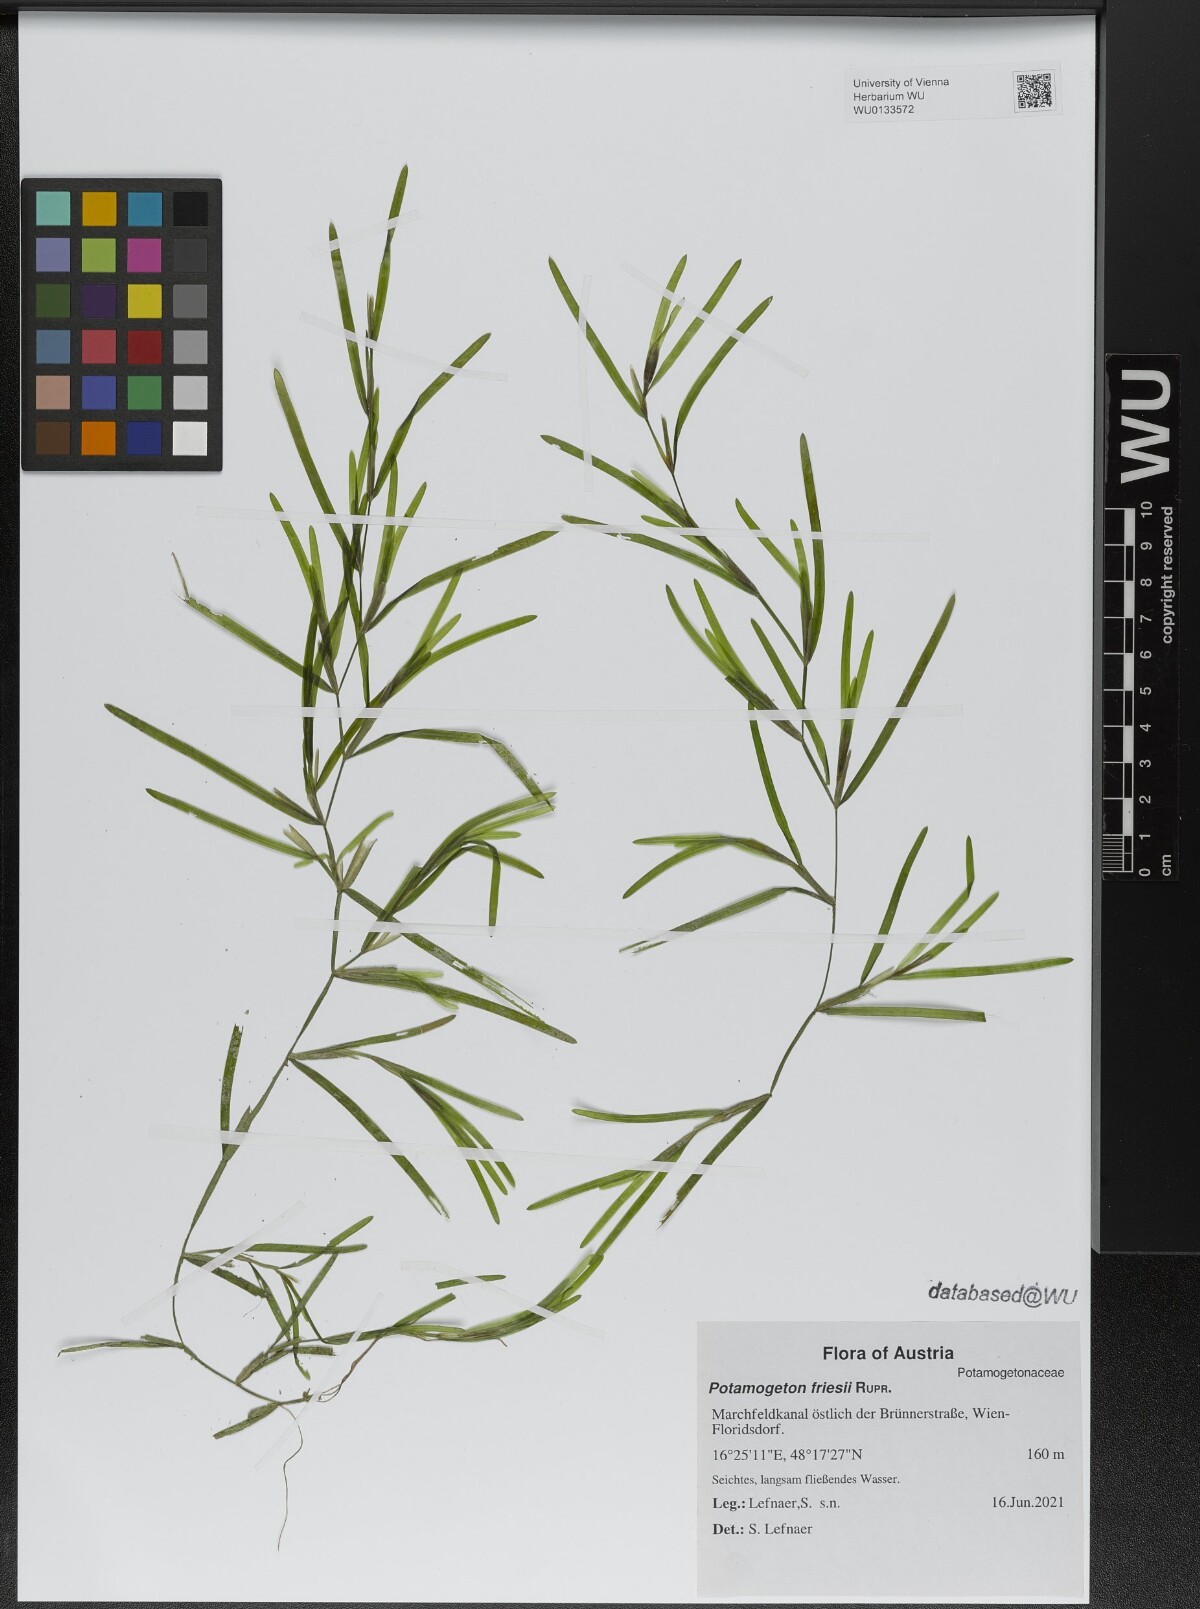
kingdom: Plantae
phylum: Tracheophyta
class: Liliopsida
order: Alismatales
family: Potamogetonaceae
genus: Potamogeton
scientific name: Potamogeton friesii
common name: Flat-stalked pondweed
